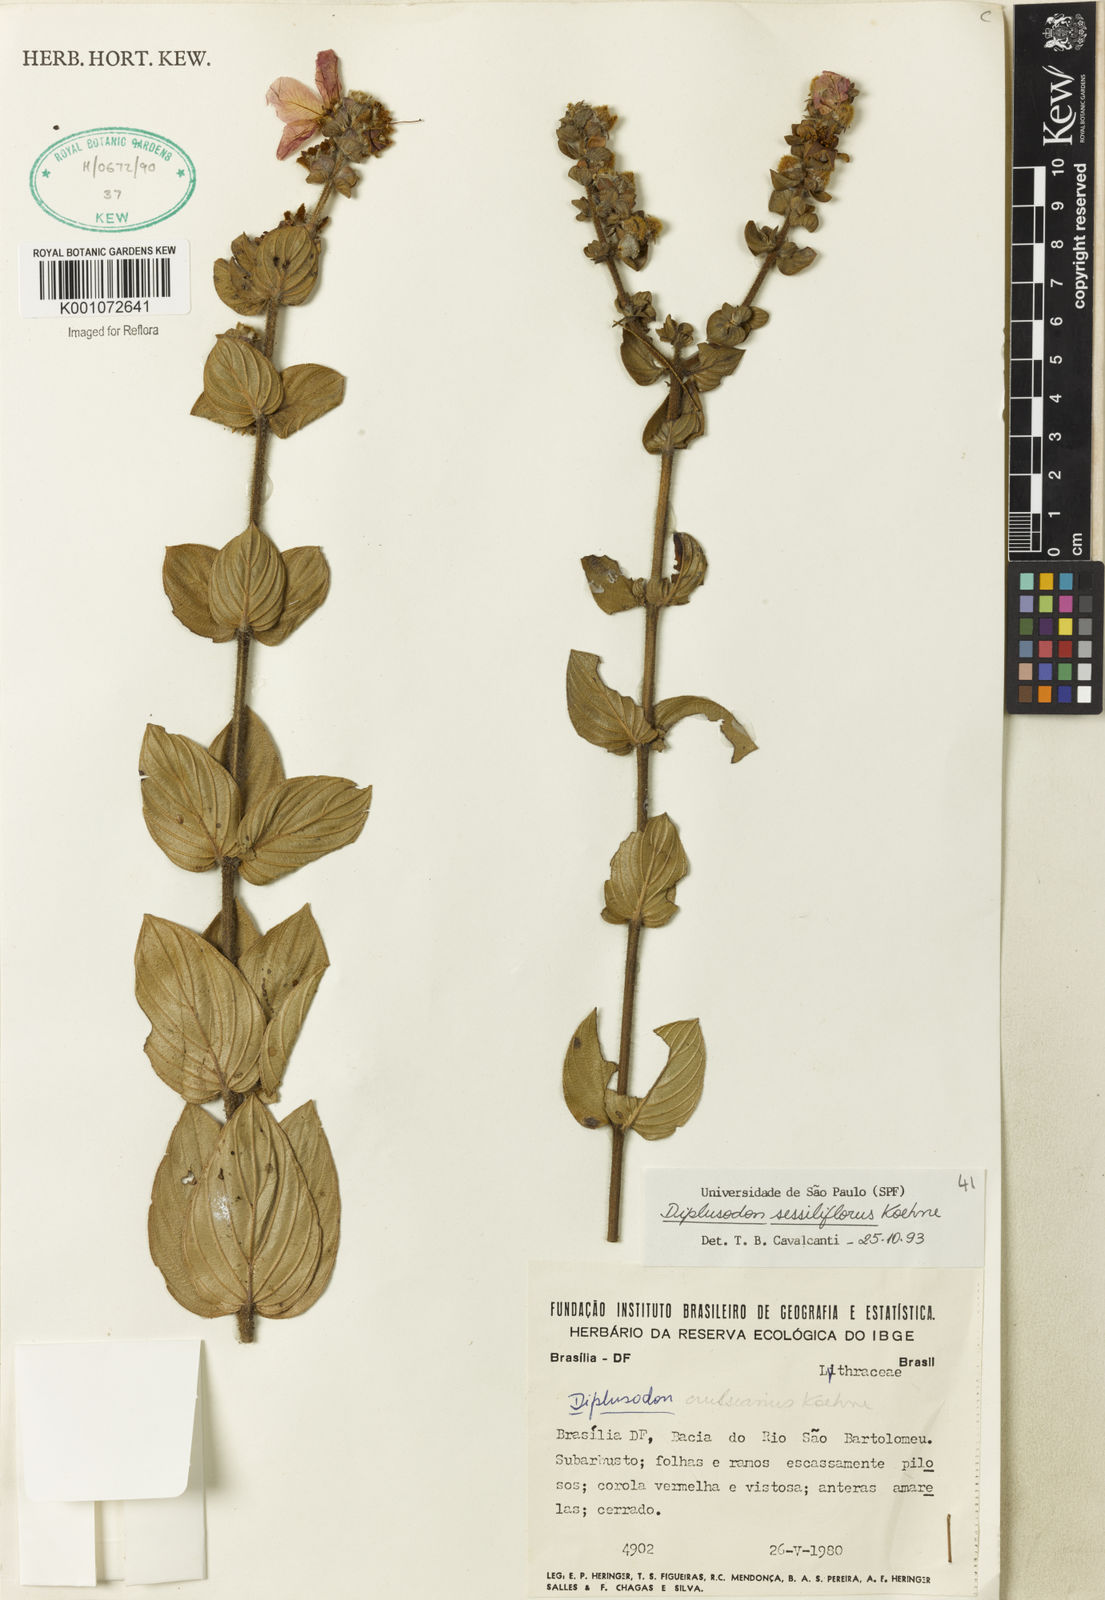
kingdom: Plantae
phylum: Tracheophyta
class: Magnoliopsida
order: Myrtales
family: Lythraceae
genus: Diplusodon
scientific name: Diplusodon sessiliflorus
